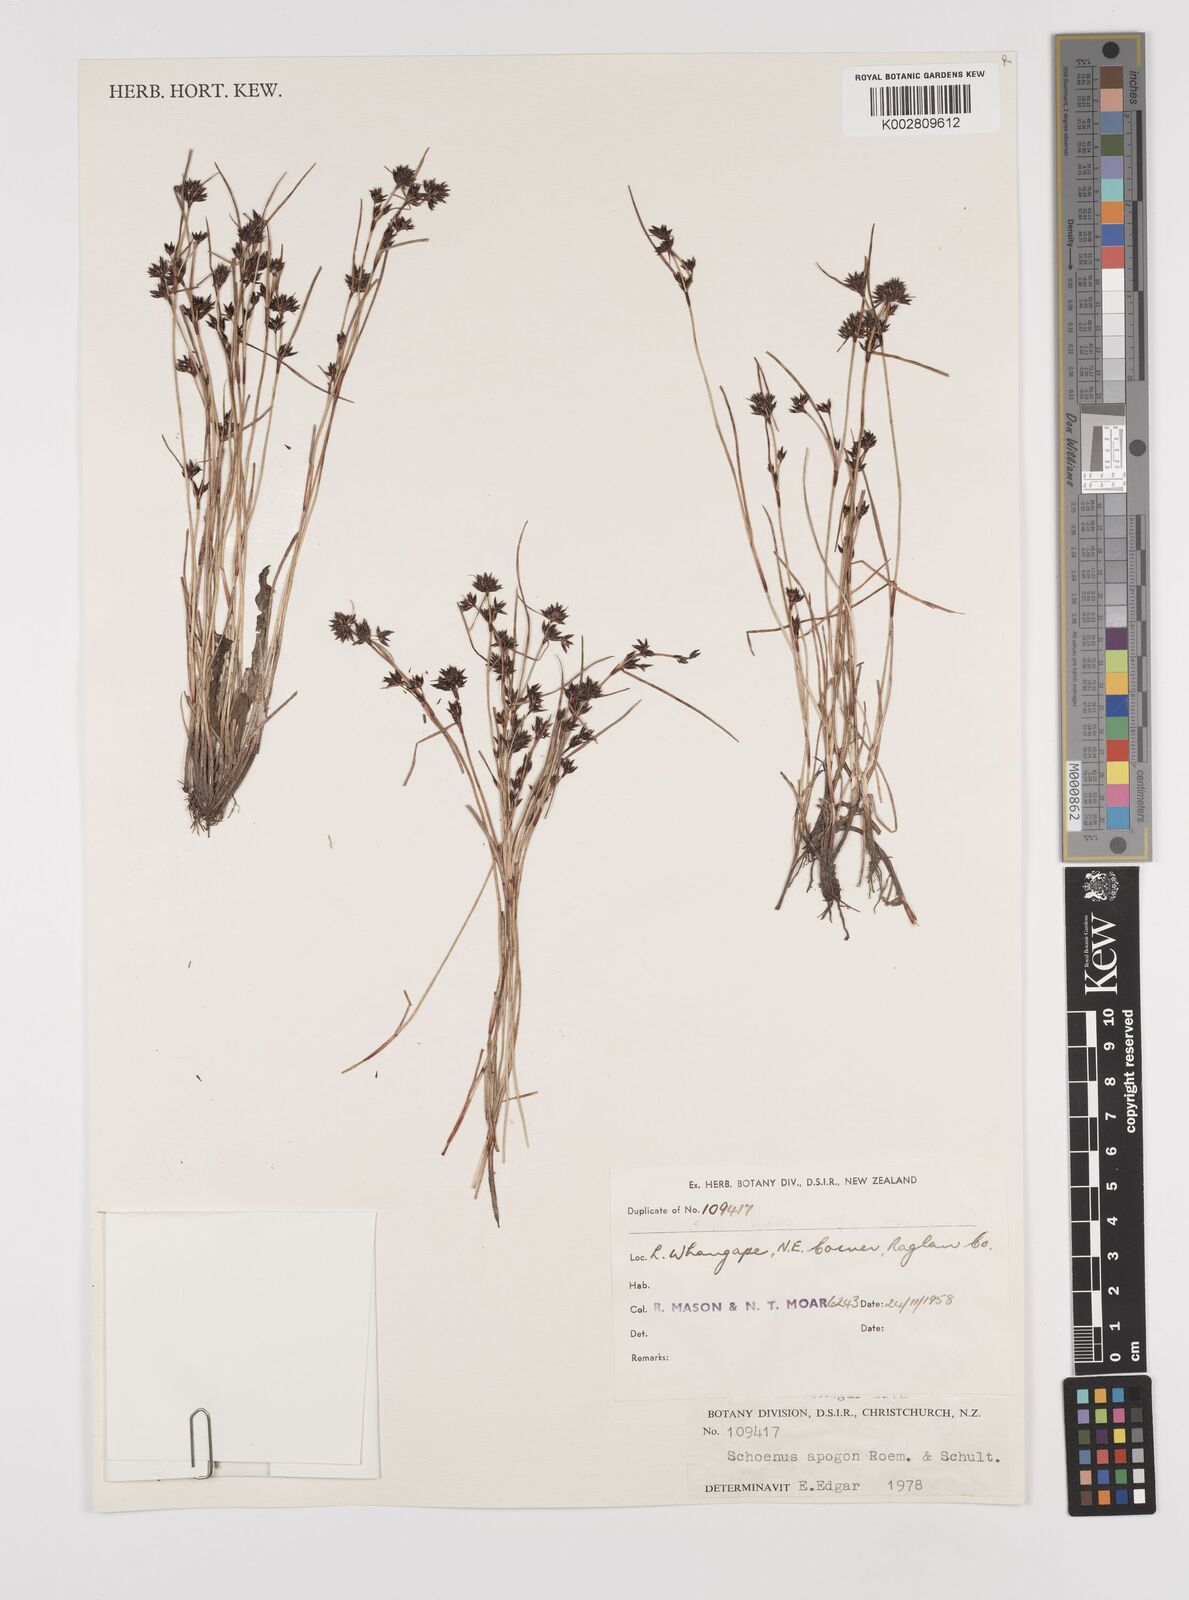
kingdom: Plantae
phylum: Tracheophyta
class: Liliopsida
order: Poales
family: Cyperaceae
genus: Schoenus
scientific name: Schoenus apogon
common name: Smooth bogrush
